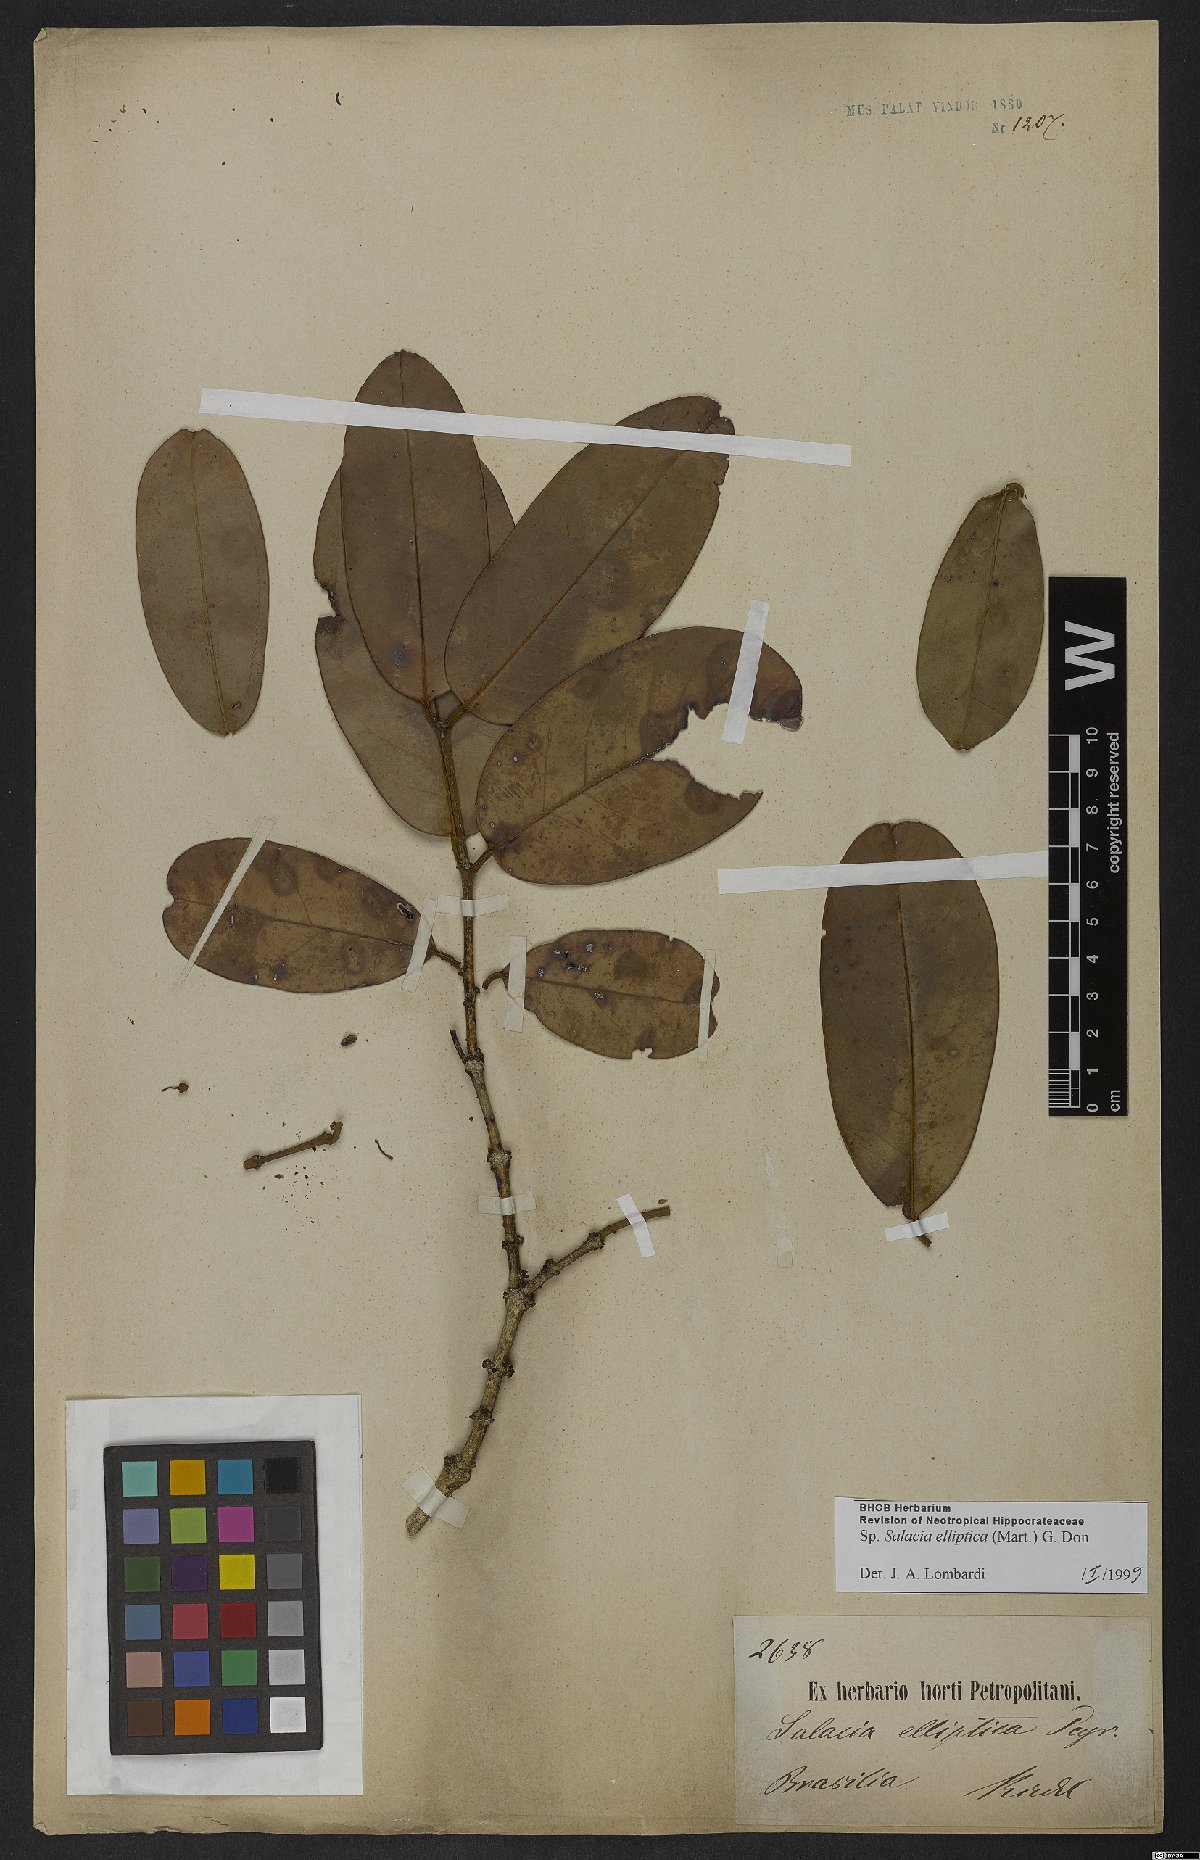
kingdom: Plantae
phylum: Tracheophyta
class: Magnoliopsida
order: Celastrales
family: Celastraceae
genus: Salacia
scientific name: Salacia elliptica
